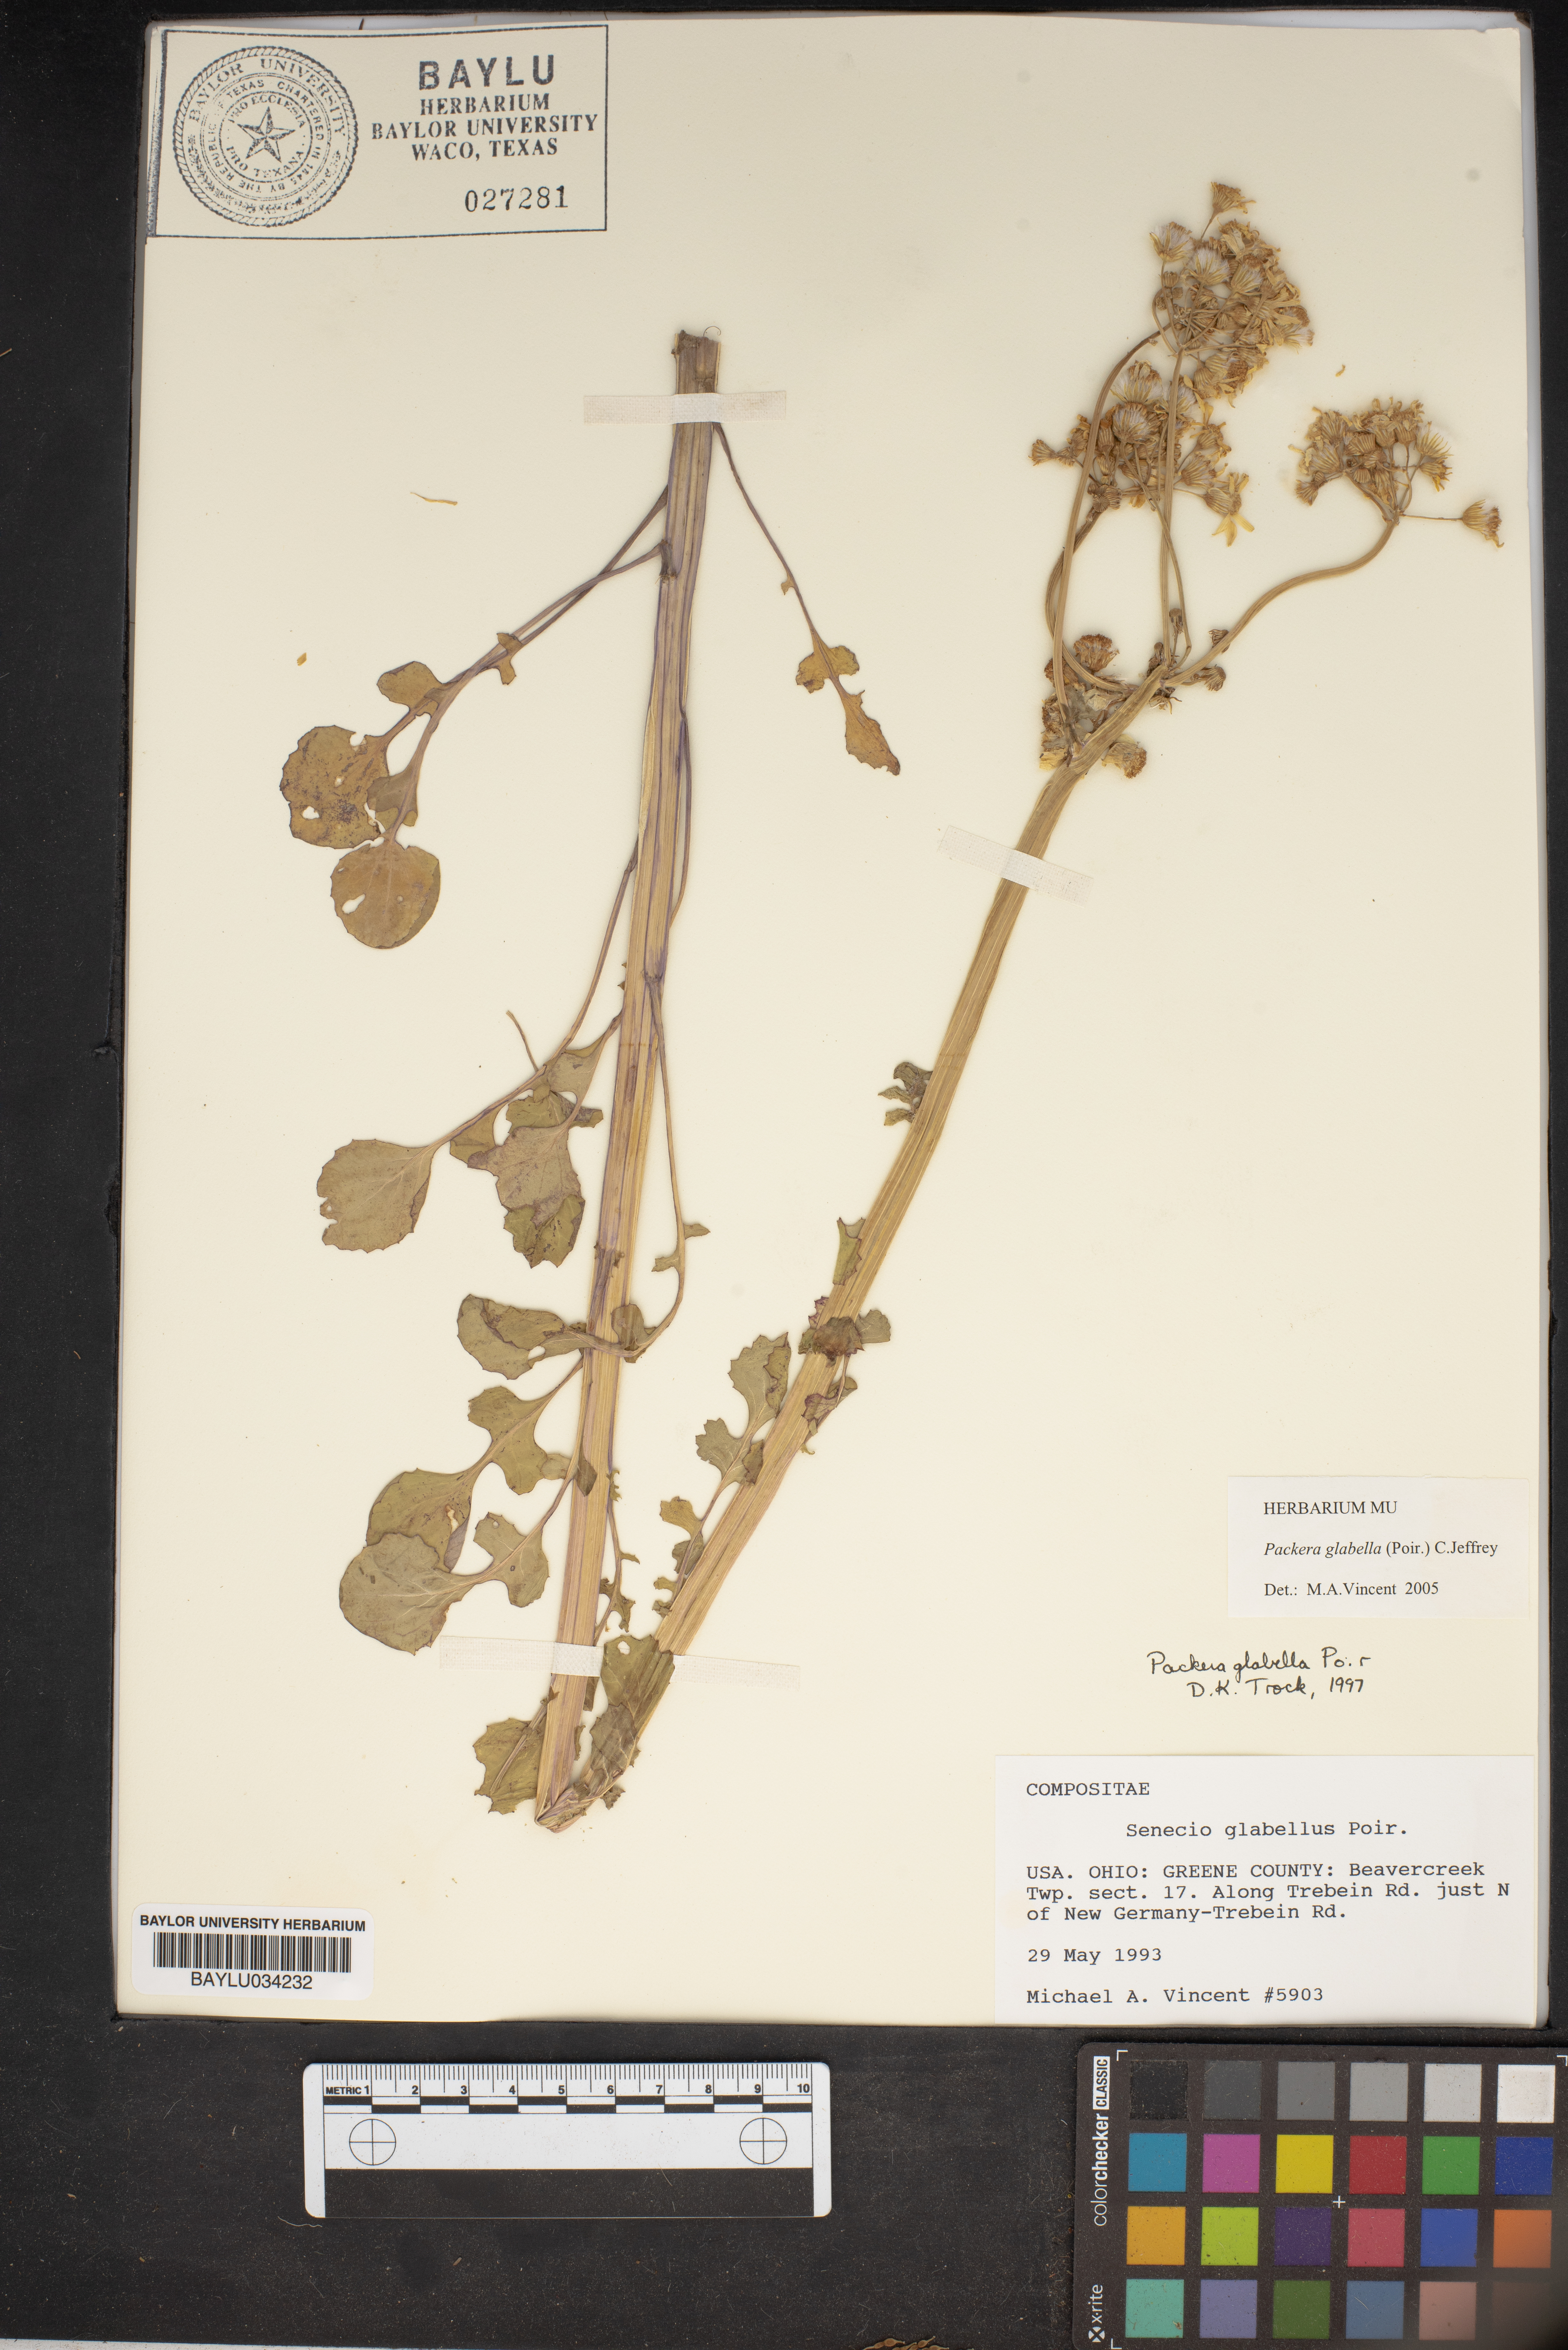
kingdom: Plantae
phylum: Tracheophyta
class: Magnoliopsida
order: Asterales
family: Asteraceae
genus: Tephroseris
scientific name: Tephroseris praticola
